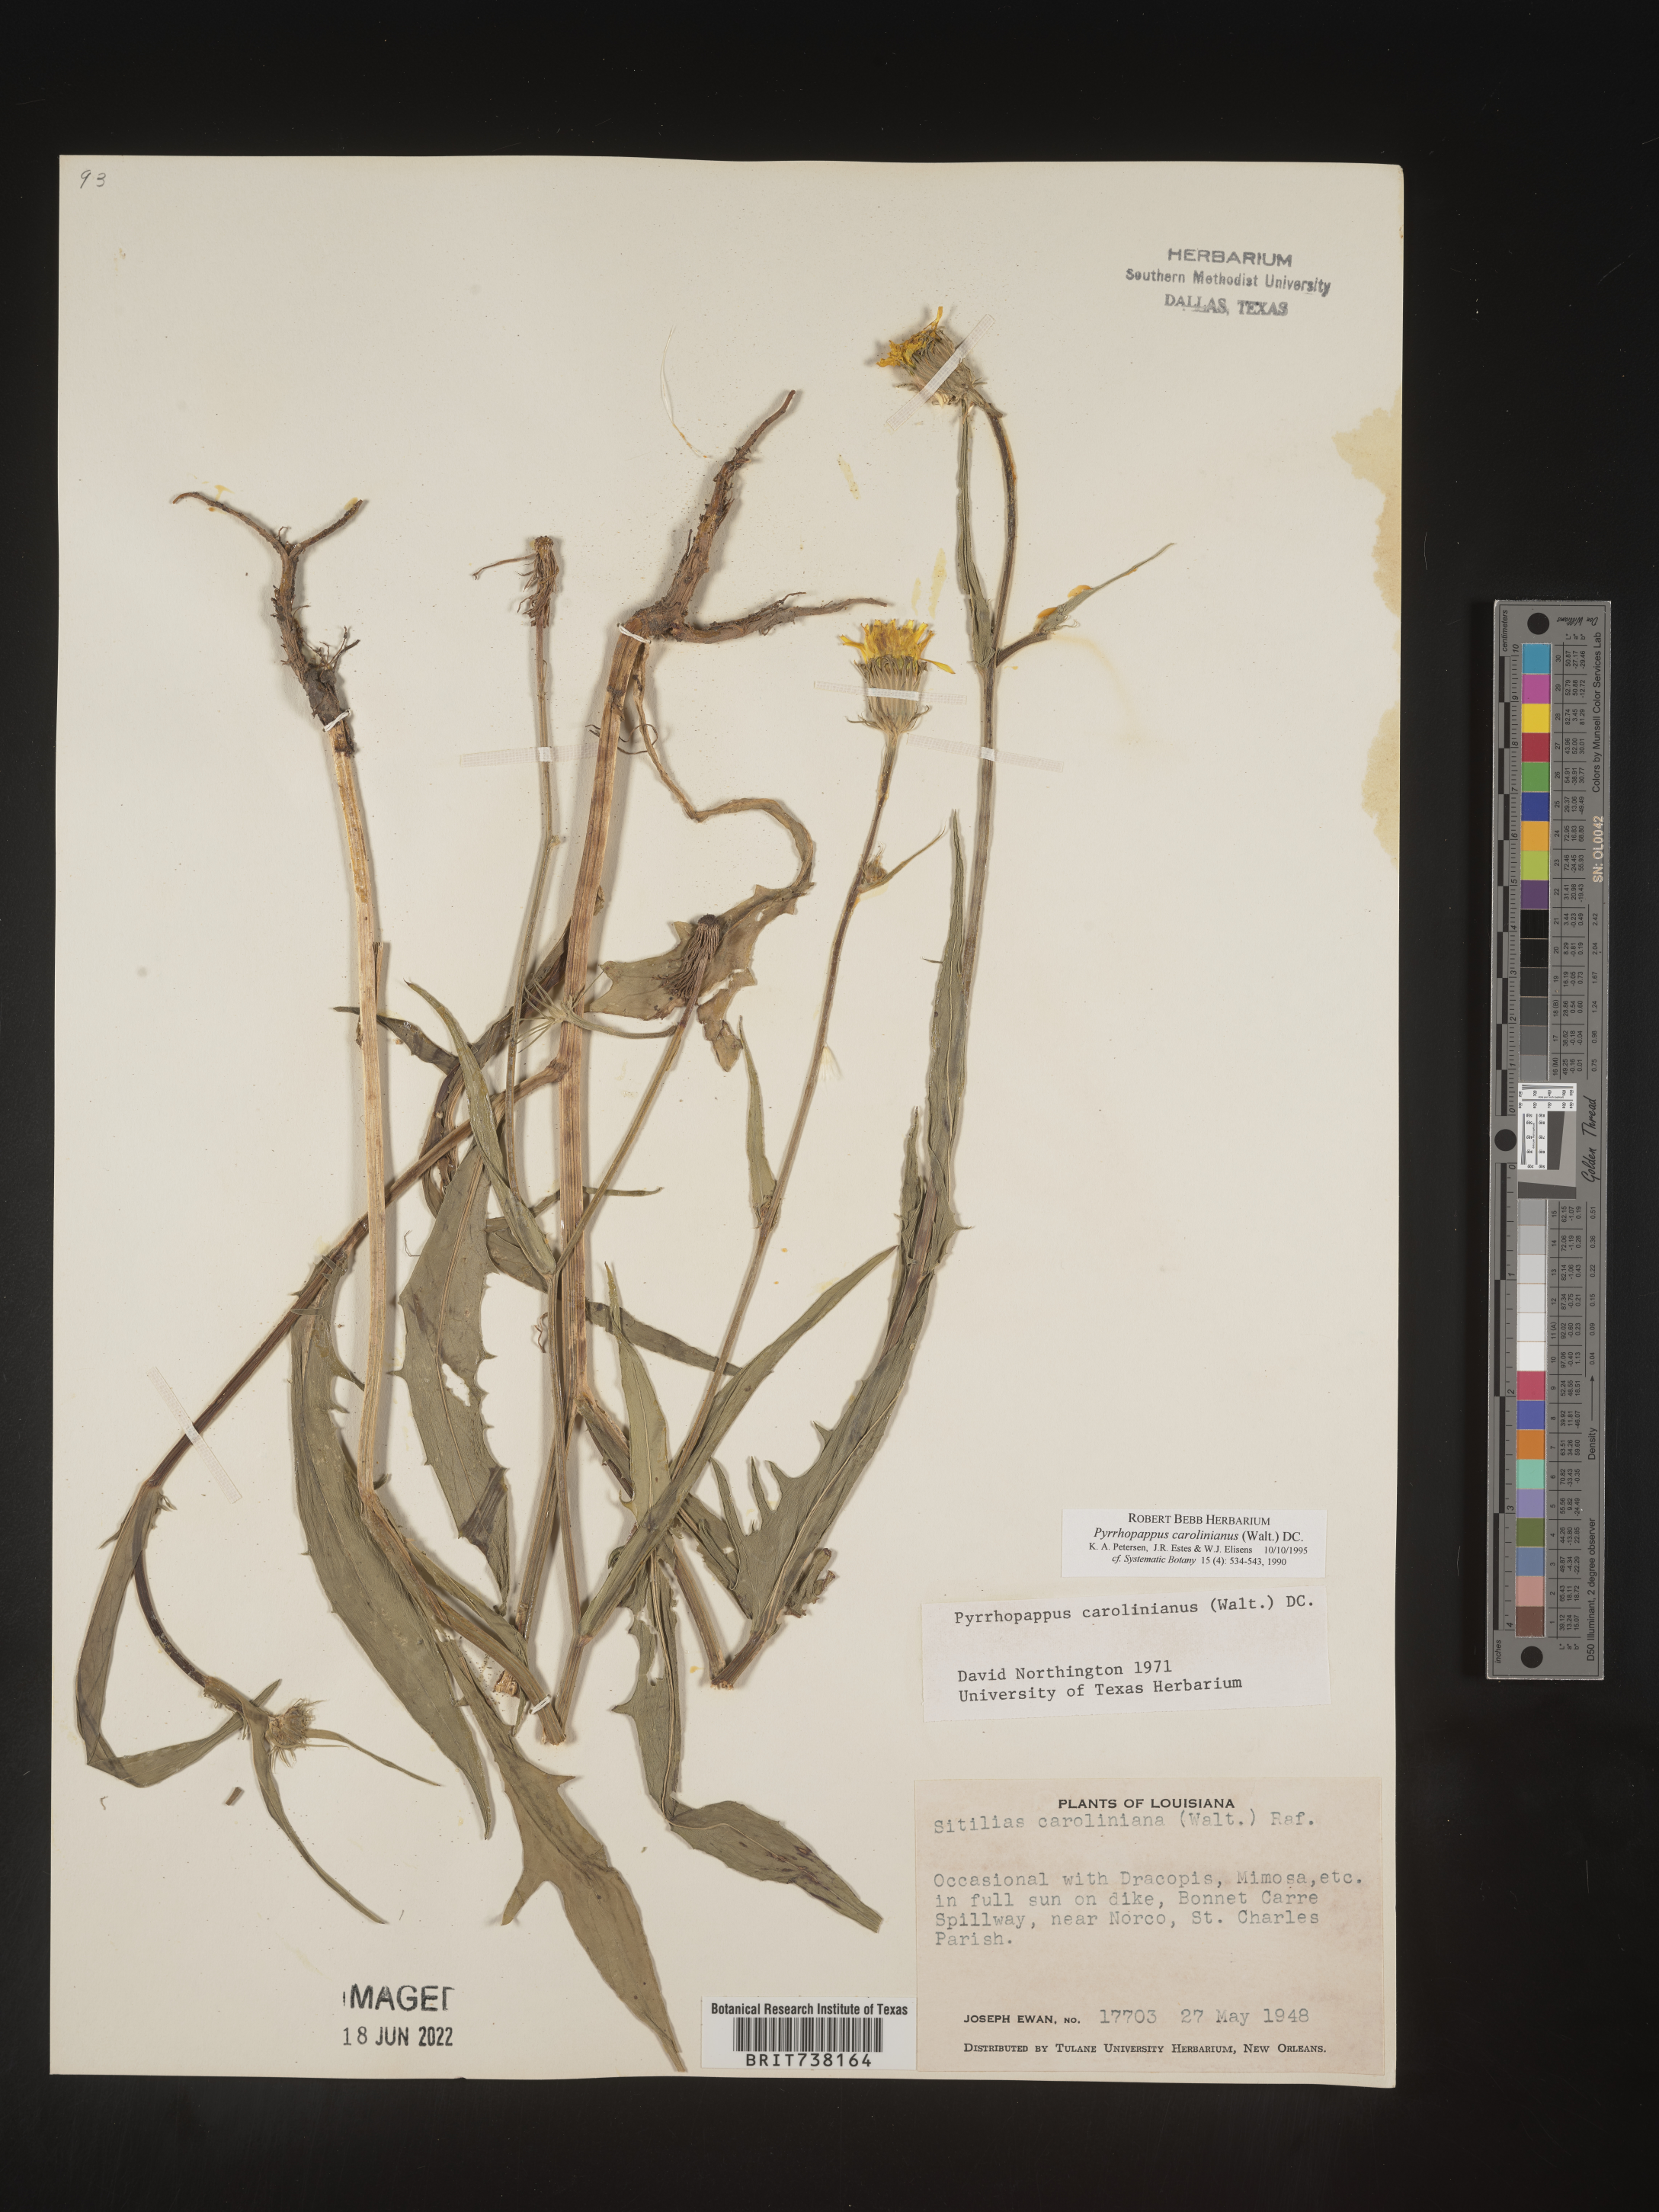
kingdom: Plantae
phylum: Tracheophyta
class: Magnoliopsida
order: Asterales
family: Asteraceae
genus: Pyrrhopappus
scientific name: Pyrrhopappus carolinianus
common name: Carolina desert-chicory
